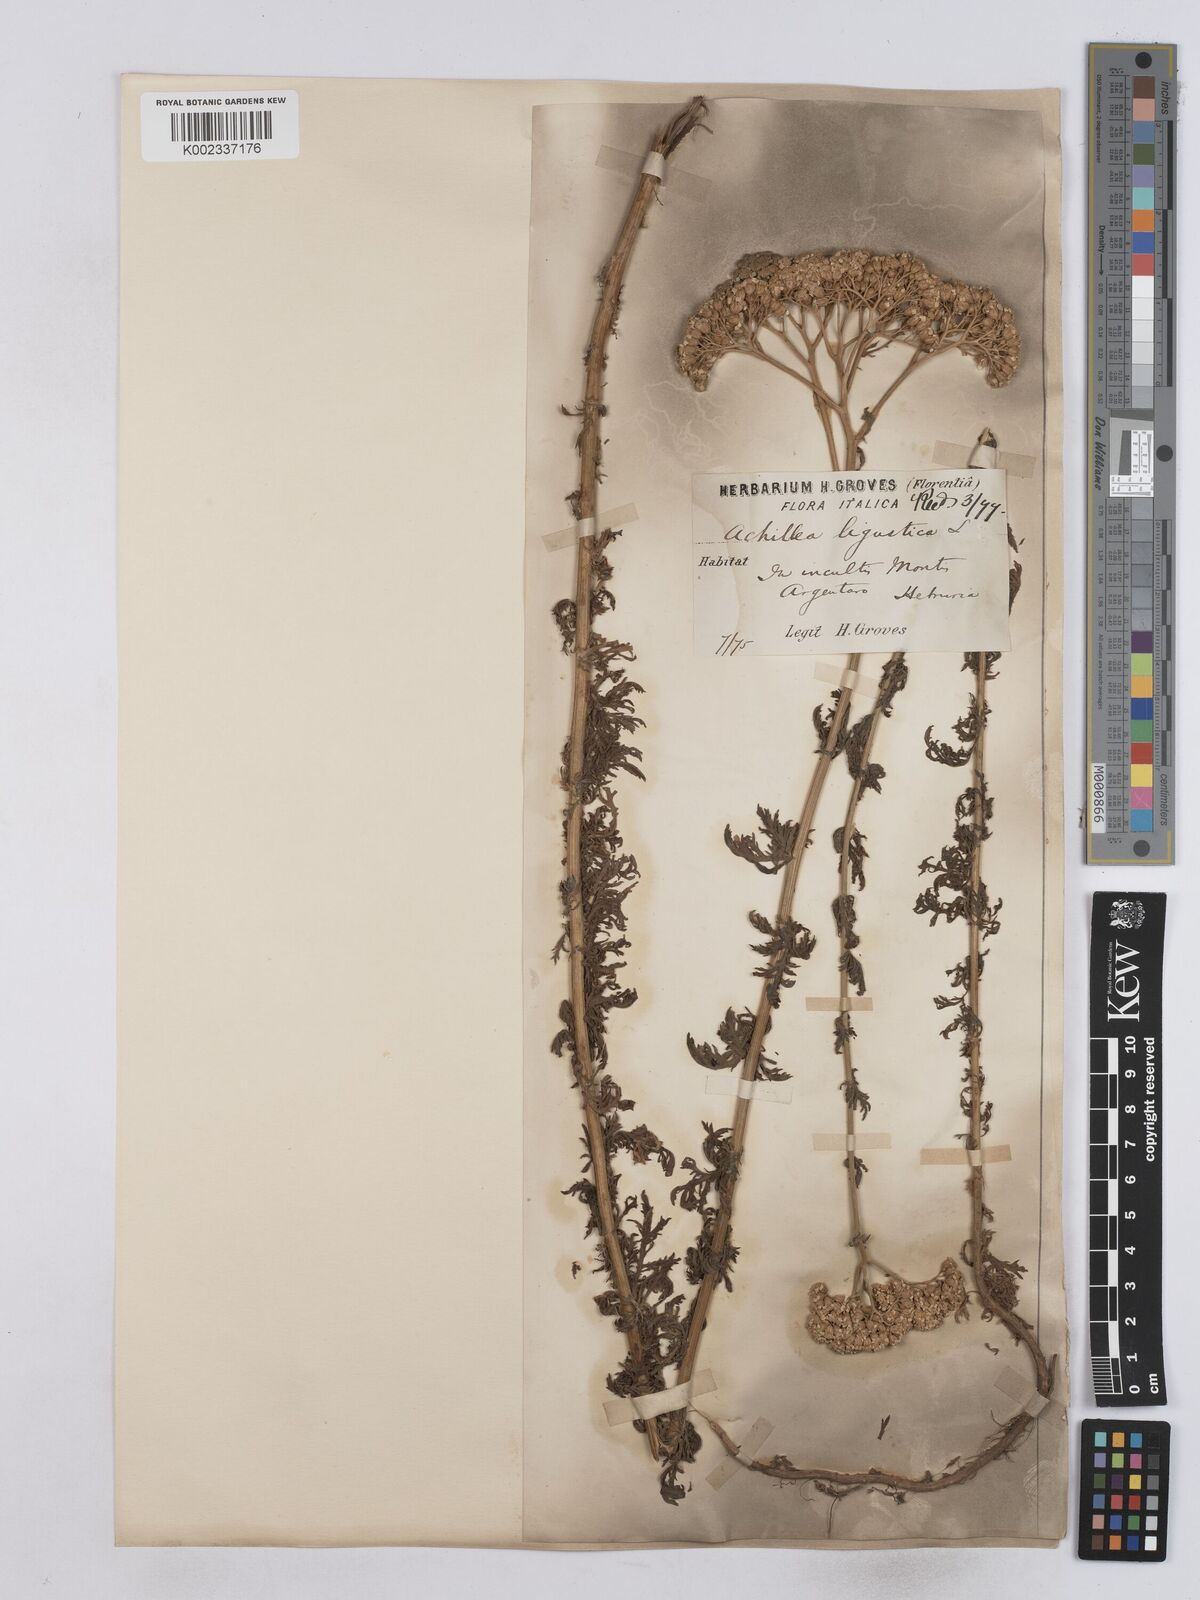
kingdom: Plantae
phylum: Tracheophyta
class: Magnoliopsida
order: Asterales
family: Asteraceae
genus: Achillea
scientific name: Achillea ligustica
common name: Southern yarrow
